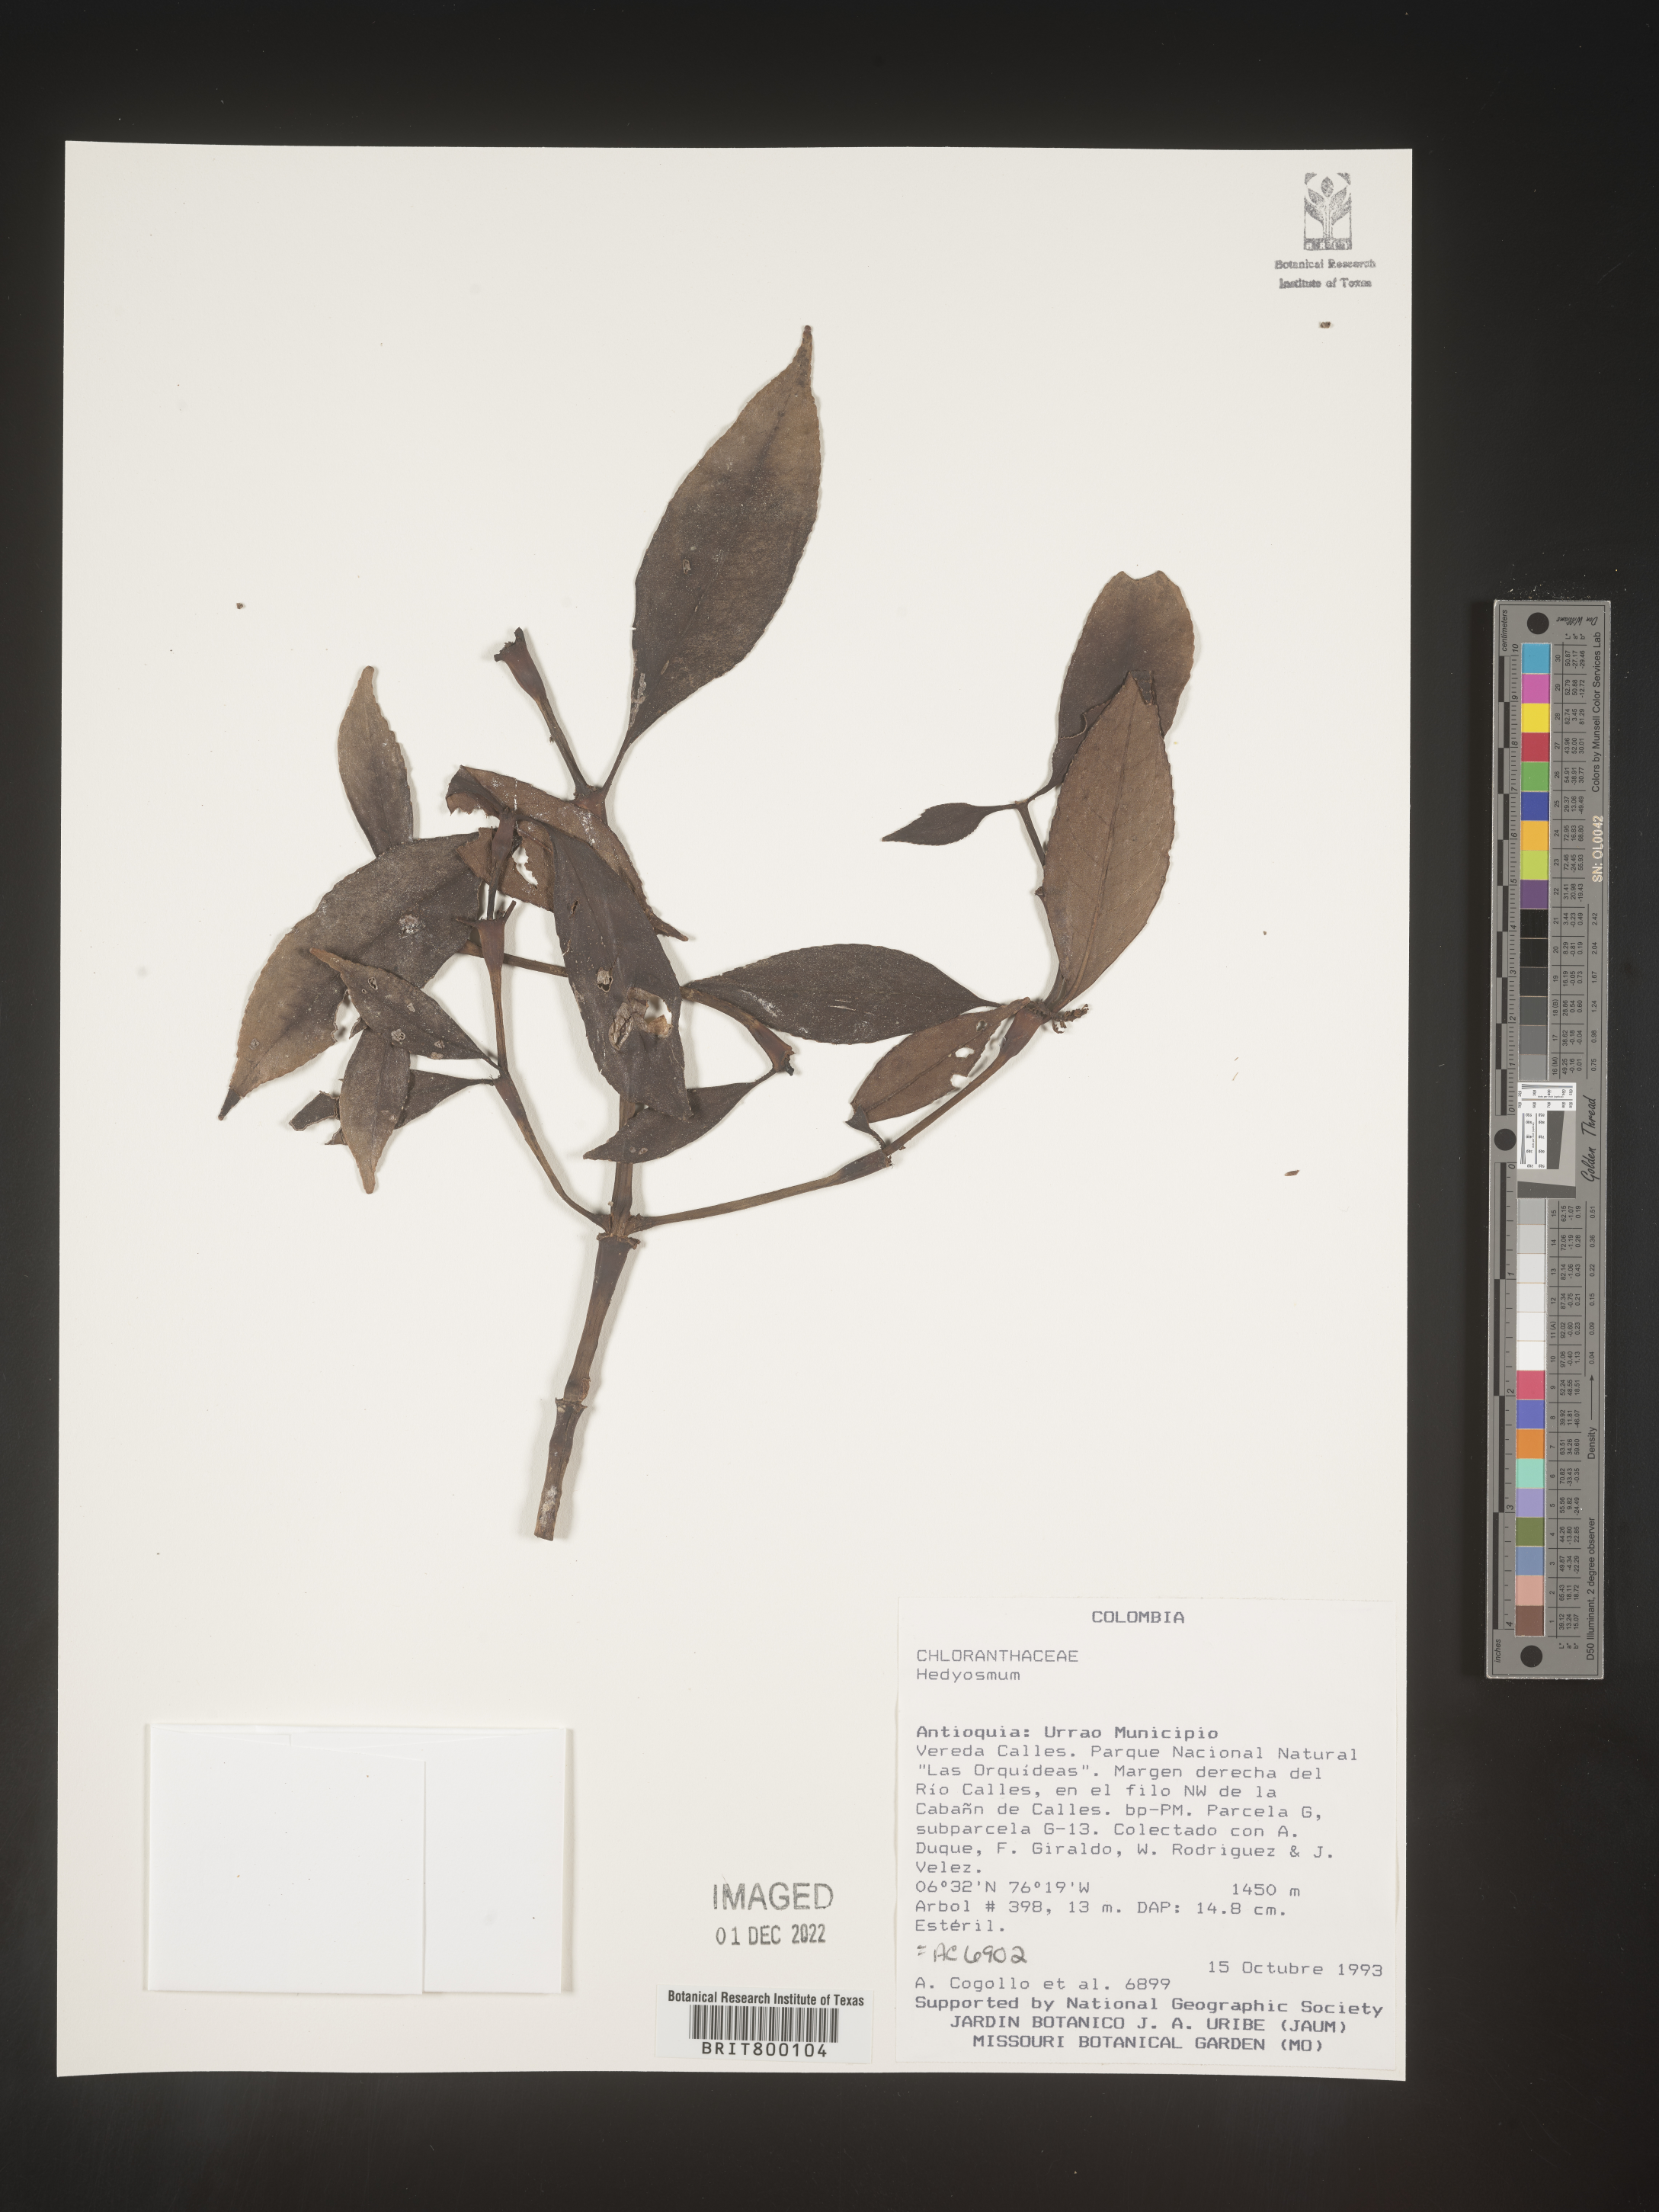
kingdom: Plantae
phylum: Tracheophyta
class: Magnoliopsida
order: Chloranthales
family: Chloranthaceae
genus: Hedyosmum
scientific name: Hedyosmum
